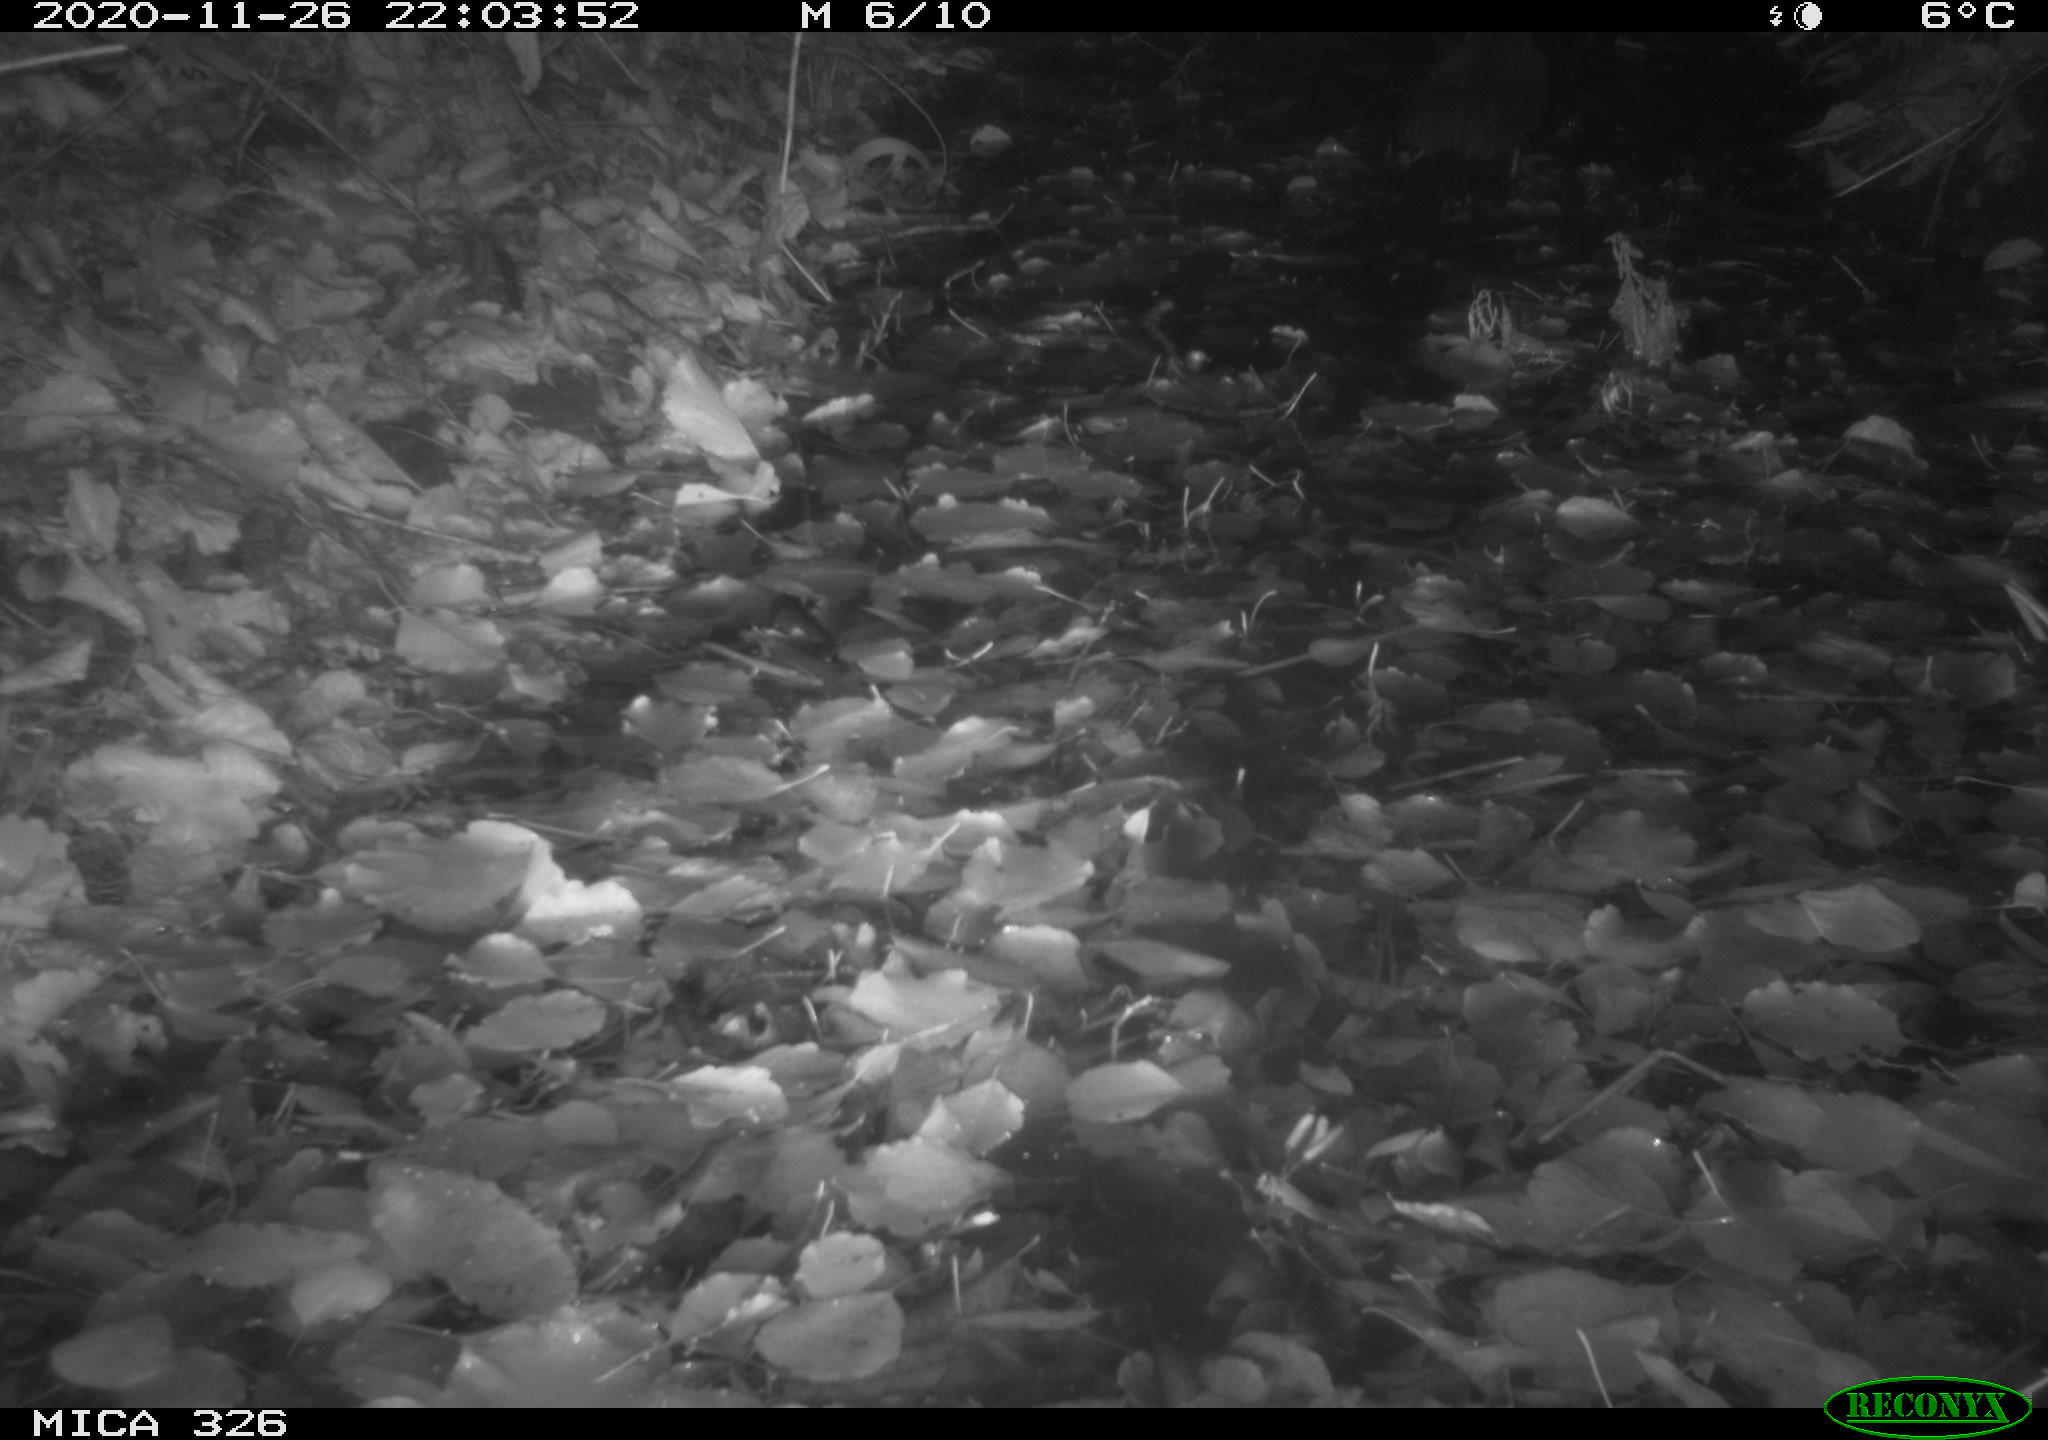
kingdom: Animalia
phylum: Chordata
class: Mammalia
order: Rodentia
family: Myocastoridae
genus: Myocastor
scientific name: Myocastor coypus
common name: Coypu
